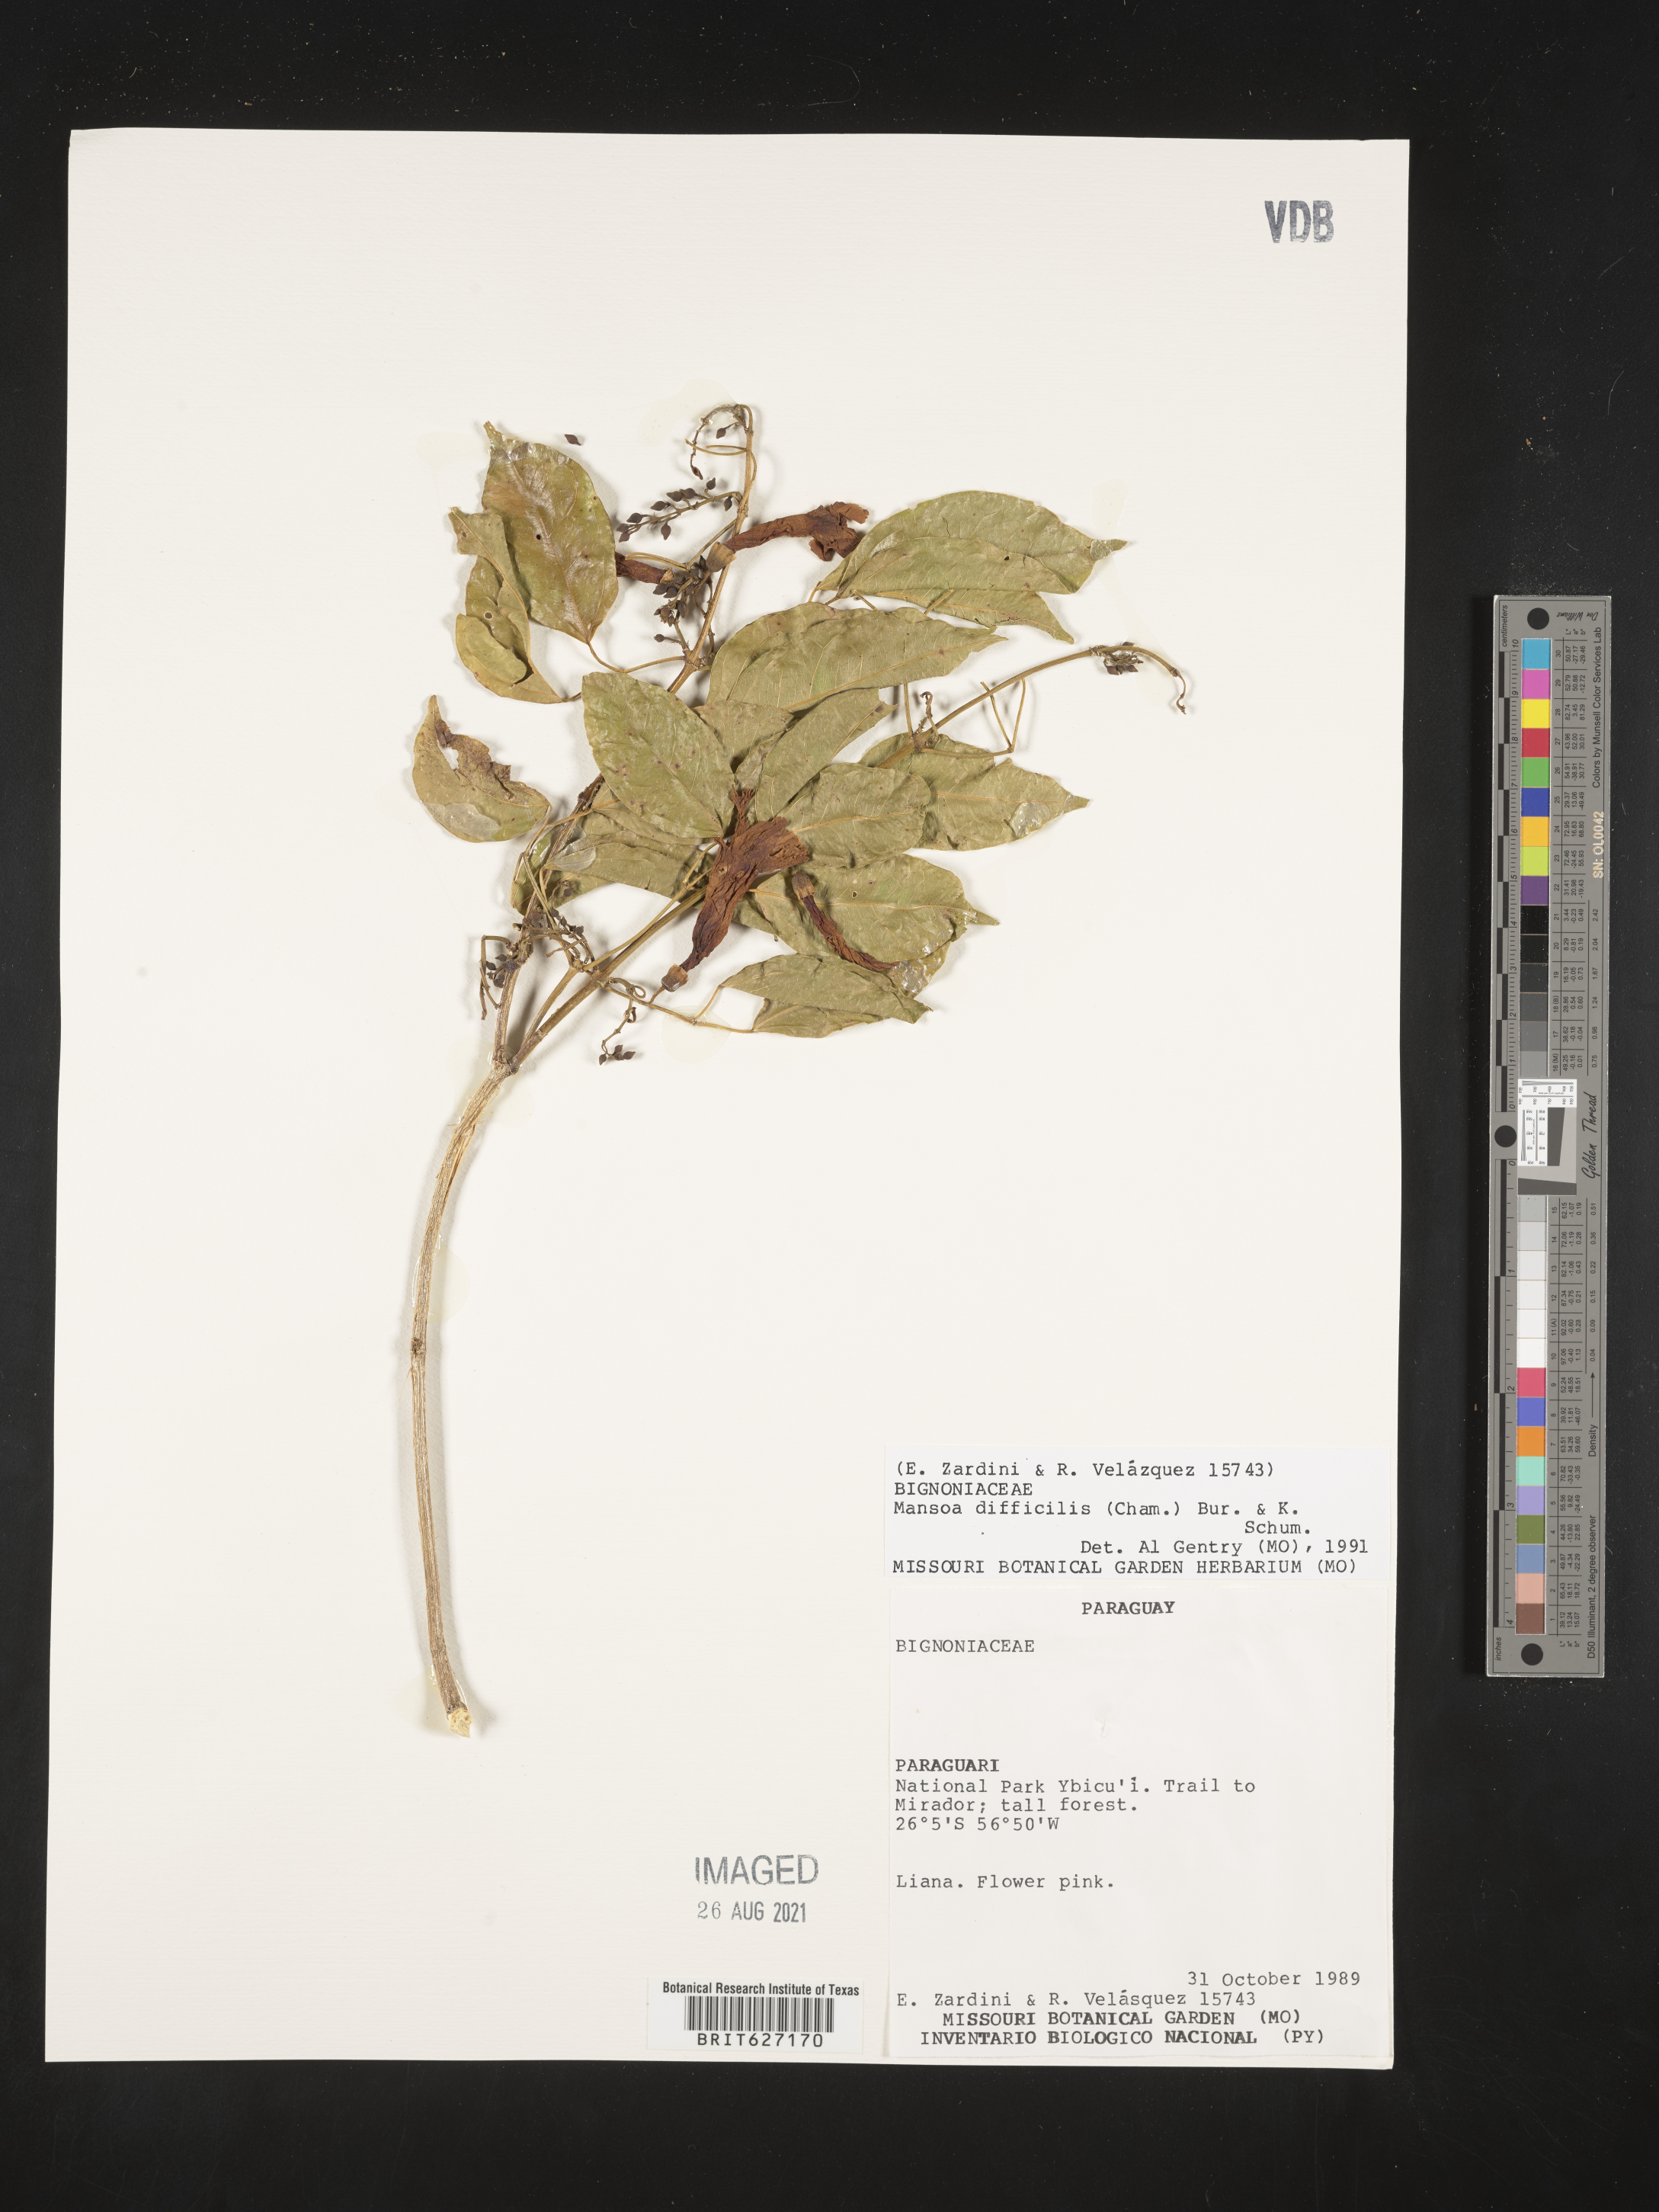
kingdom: Plantae
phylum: Tracheophyta
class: Magnoliopsida
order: Lamiales
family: Bignoniaceae
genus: Mansoa
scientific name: Mansoa difficilis
